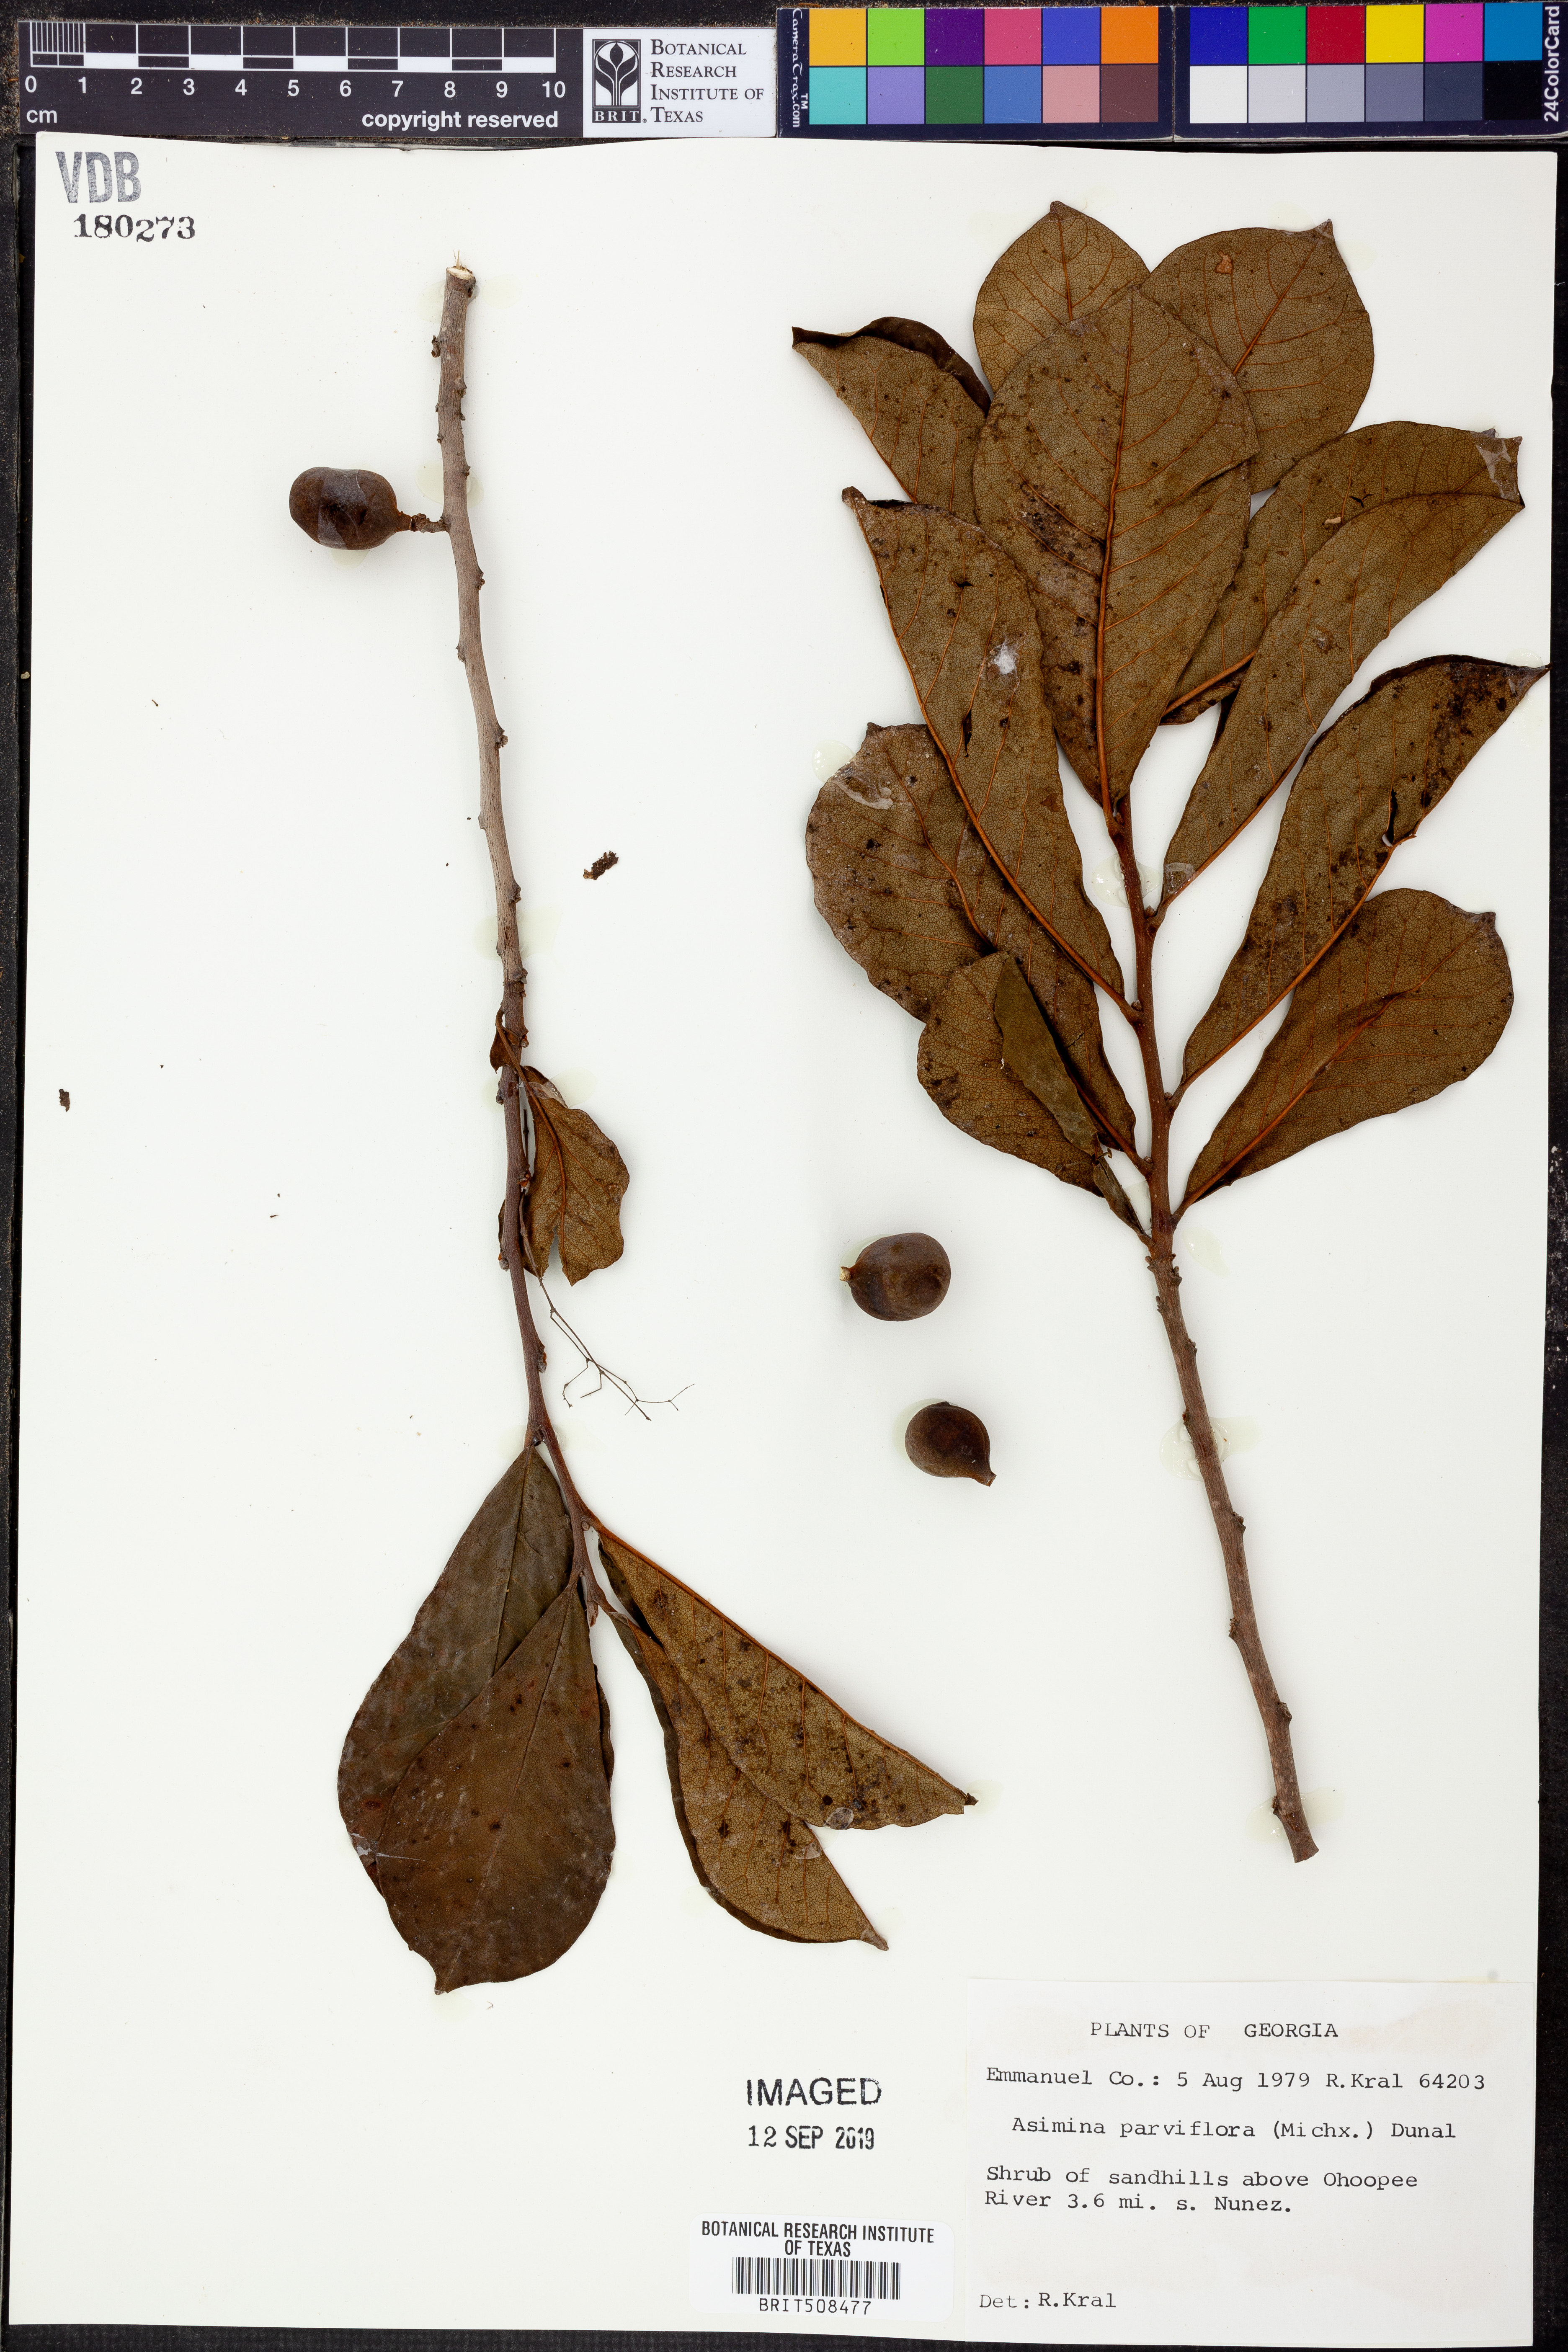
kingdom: Plantae
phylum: Tracheophyta
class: Magnoliopsida
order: Magnoliales
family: Annonaceae
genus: Asimina
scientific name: Asimina parviflora
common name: Dwarf pawpaw
